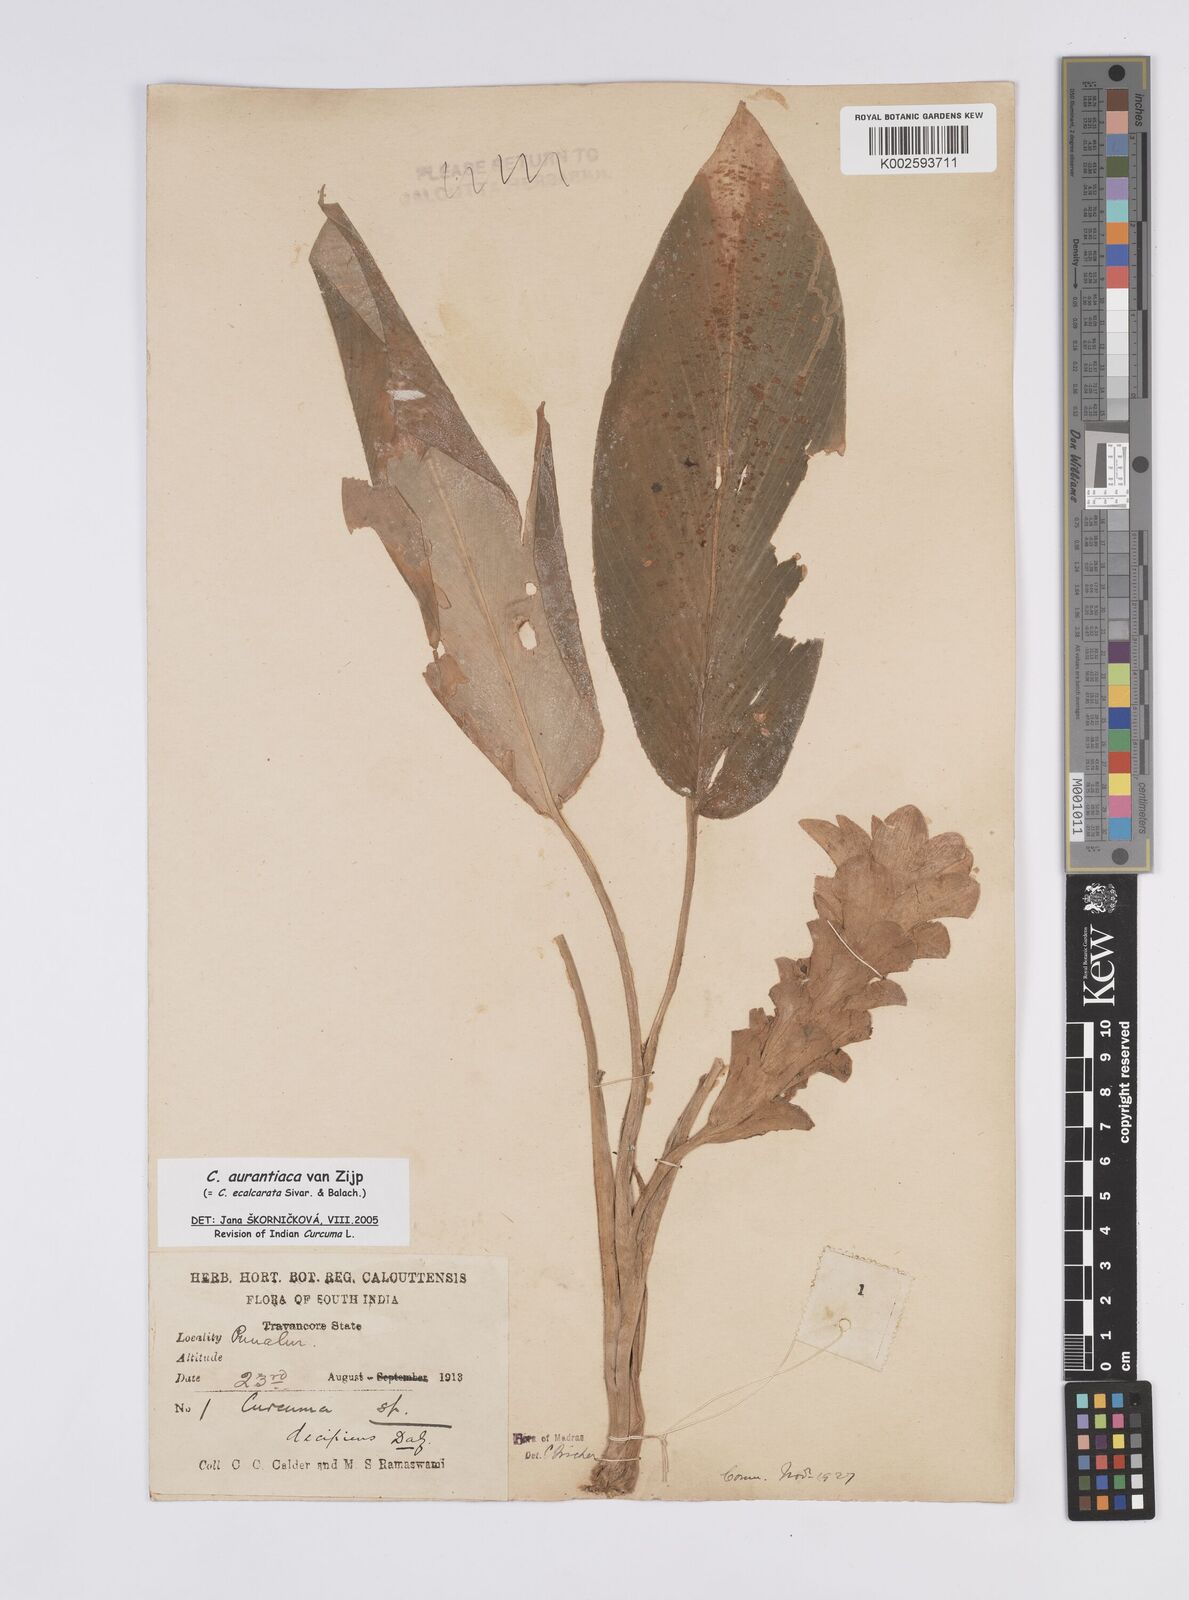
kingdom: Plantae
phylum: Tracheophyta
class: Liliopsida
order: Zingiberales
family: Zingiberaceae
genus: Curcuma
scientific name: Curcuma aurantiaca
